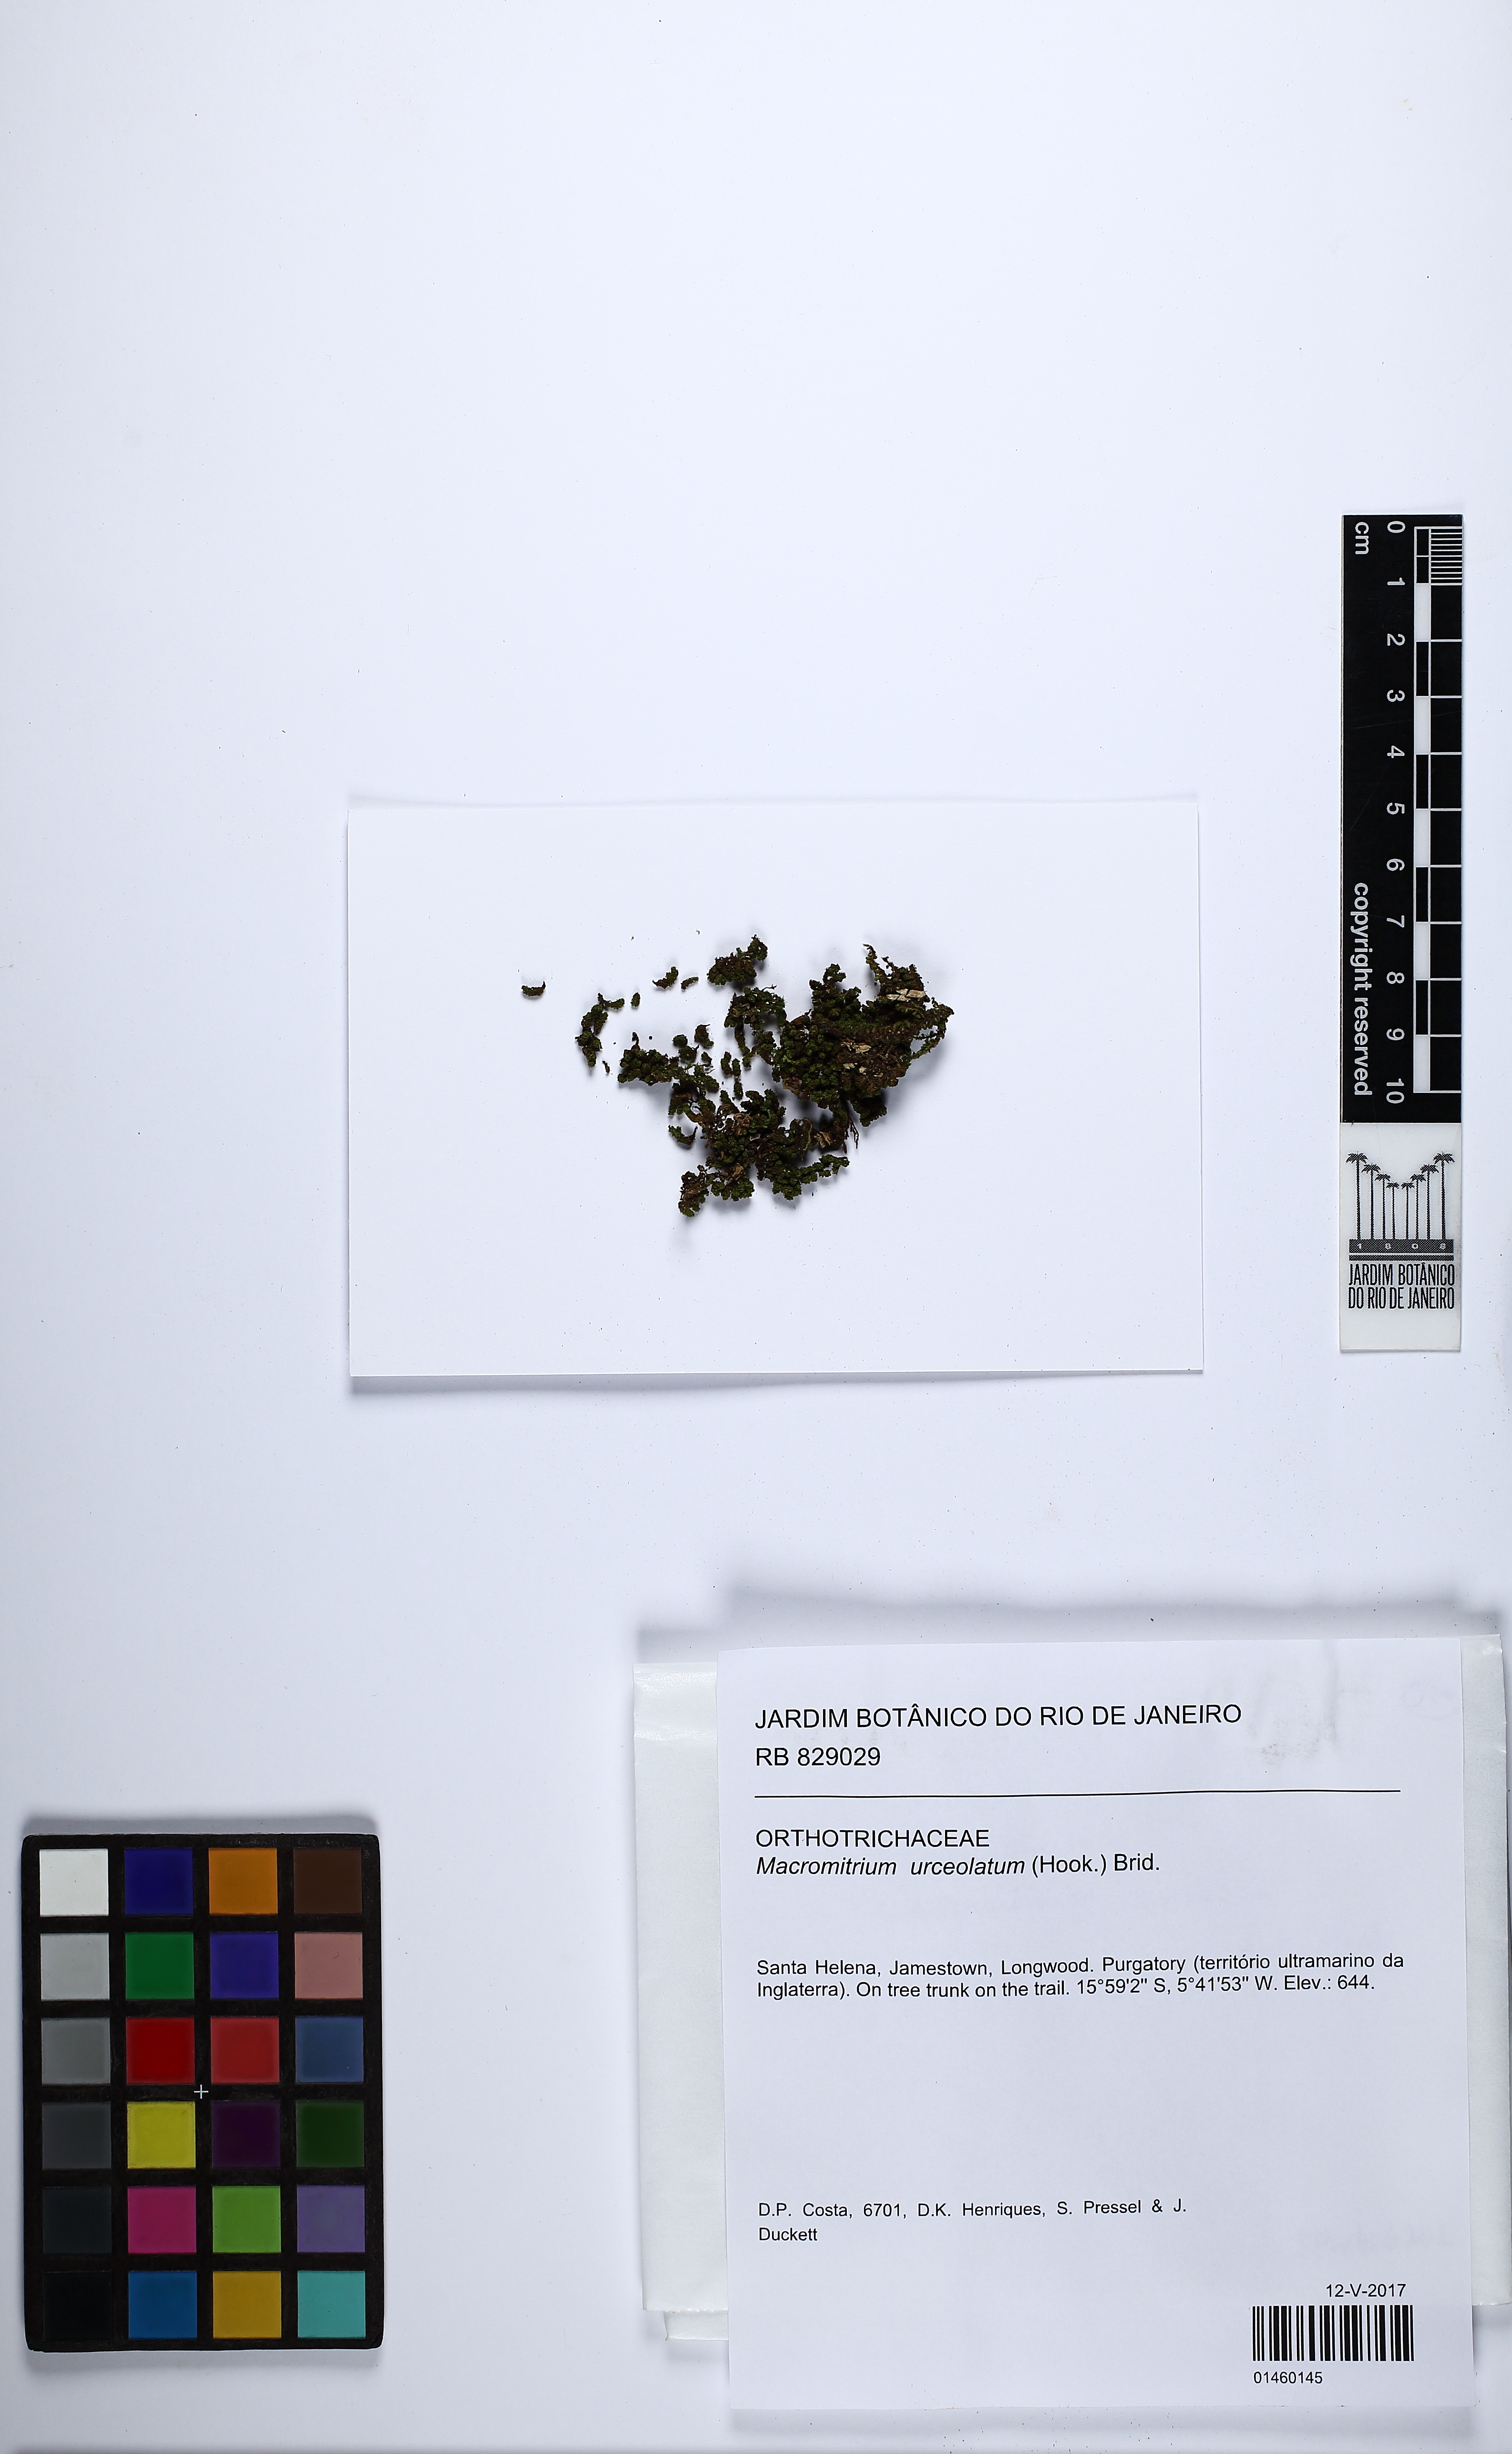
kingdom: Plantae
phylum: Bryophyta
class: Bryopsida
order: Orthotrichales
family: Orthotrichaceae
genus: Macromitrium
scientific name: Macromitrium urceolatum
